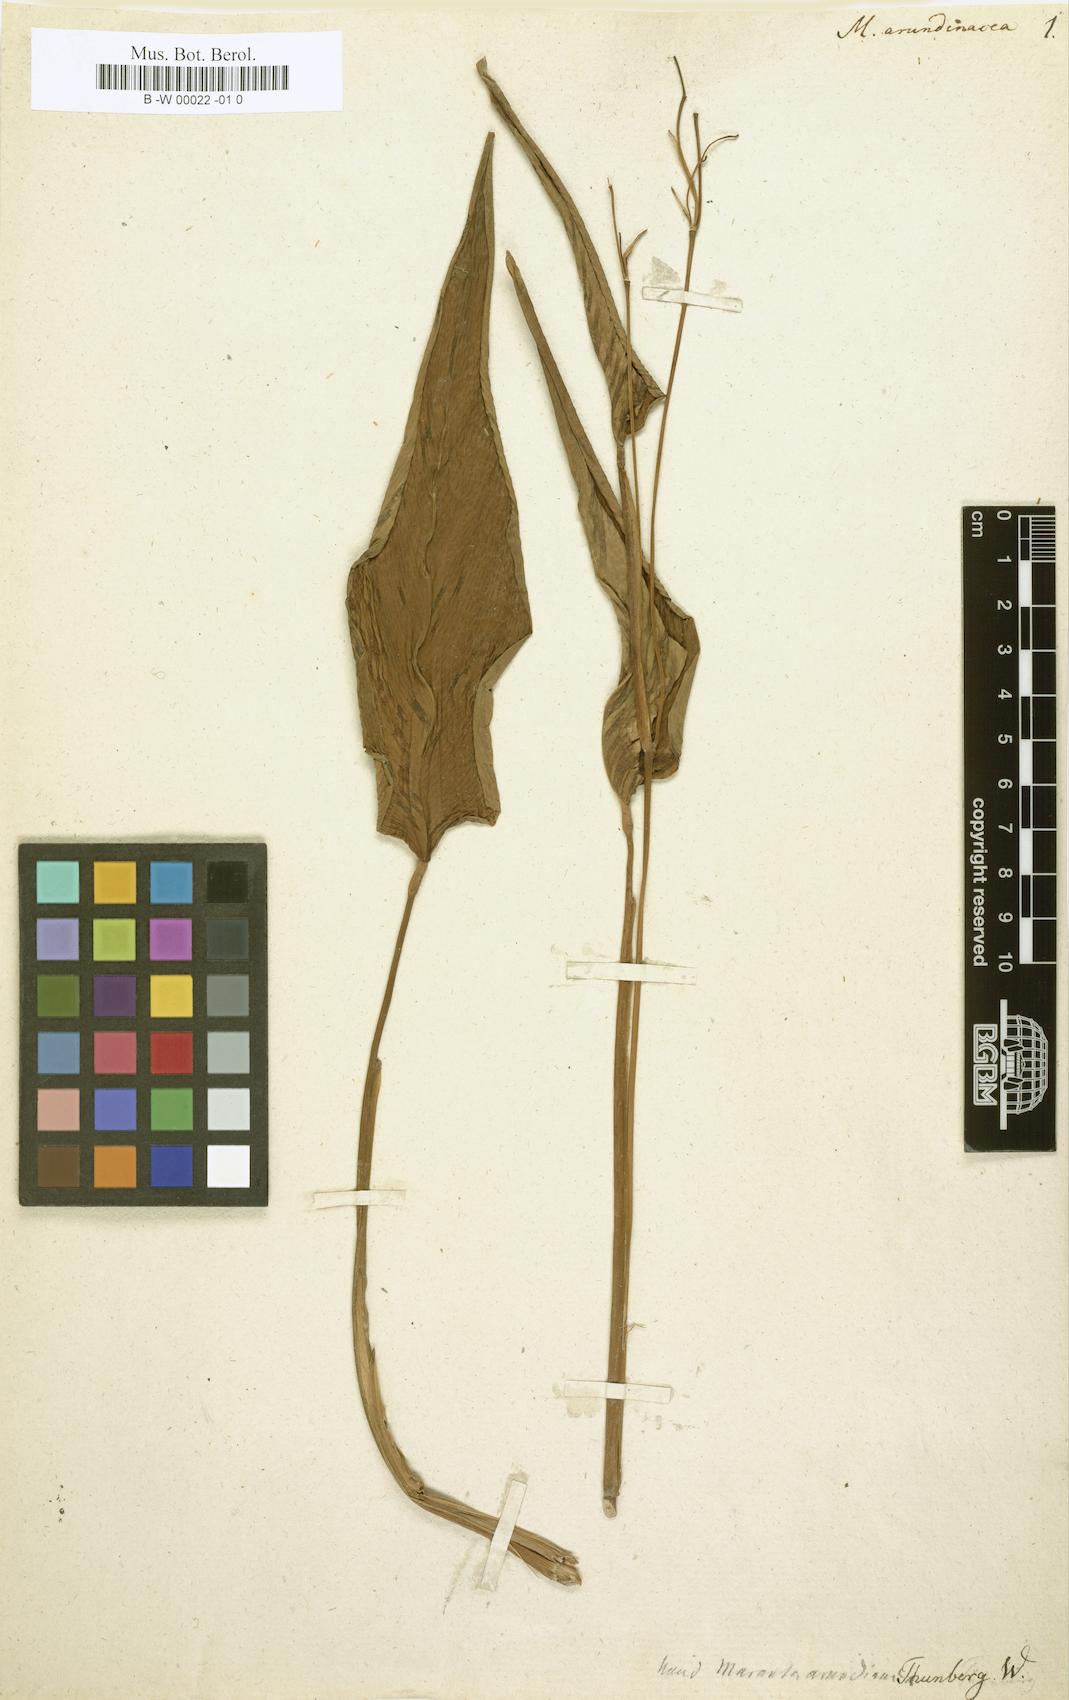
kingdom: Plantae
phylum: Tracheophyta
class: Liliopsida
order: Zingiberales
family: Marantaceae
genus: Maranta
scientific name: Maranta arundinacea
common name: Arrowroot
